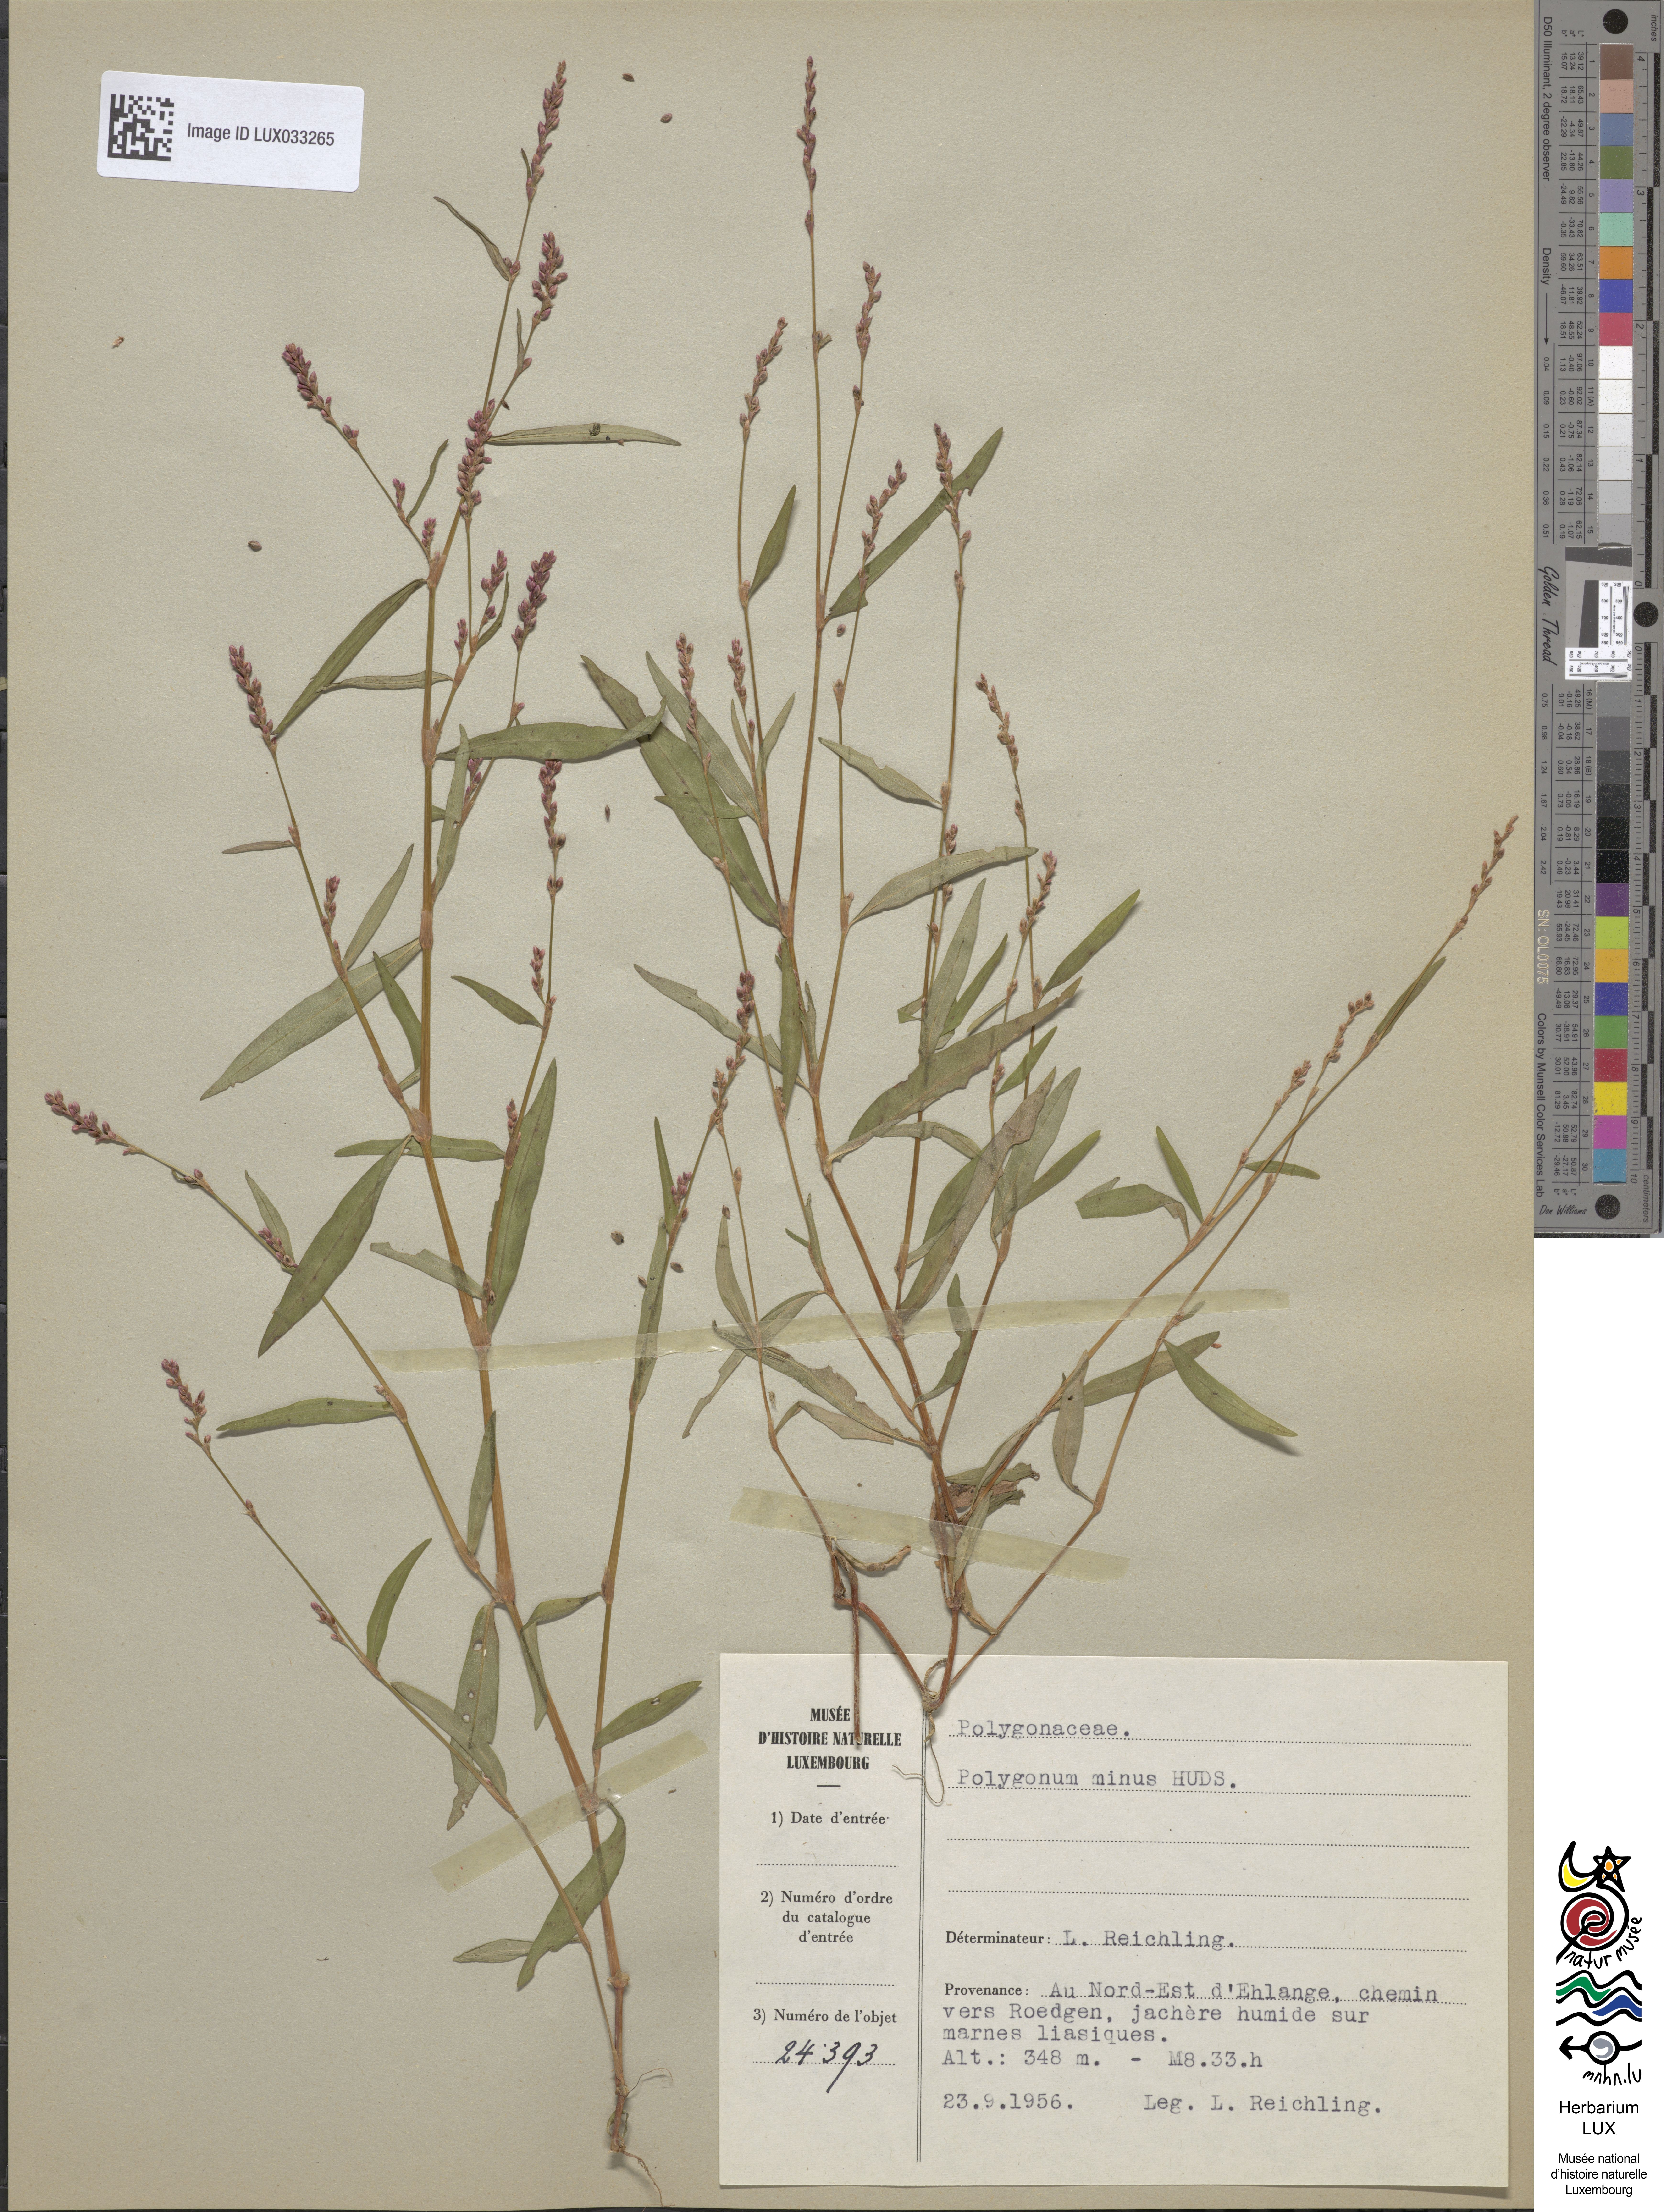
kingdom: Plantae
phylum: Tracheophyta
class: Magnoliopsida
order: Caryophyllales
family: Polygonaceae
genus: Persicaria
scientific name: Persicaria minor
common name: Small water-pepper
